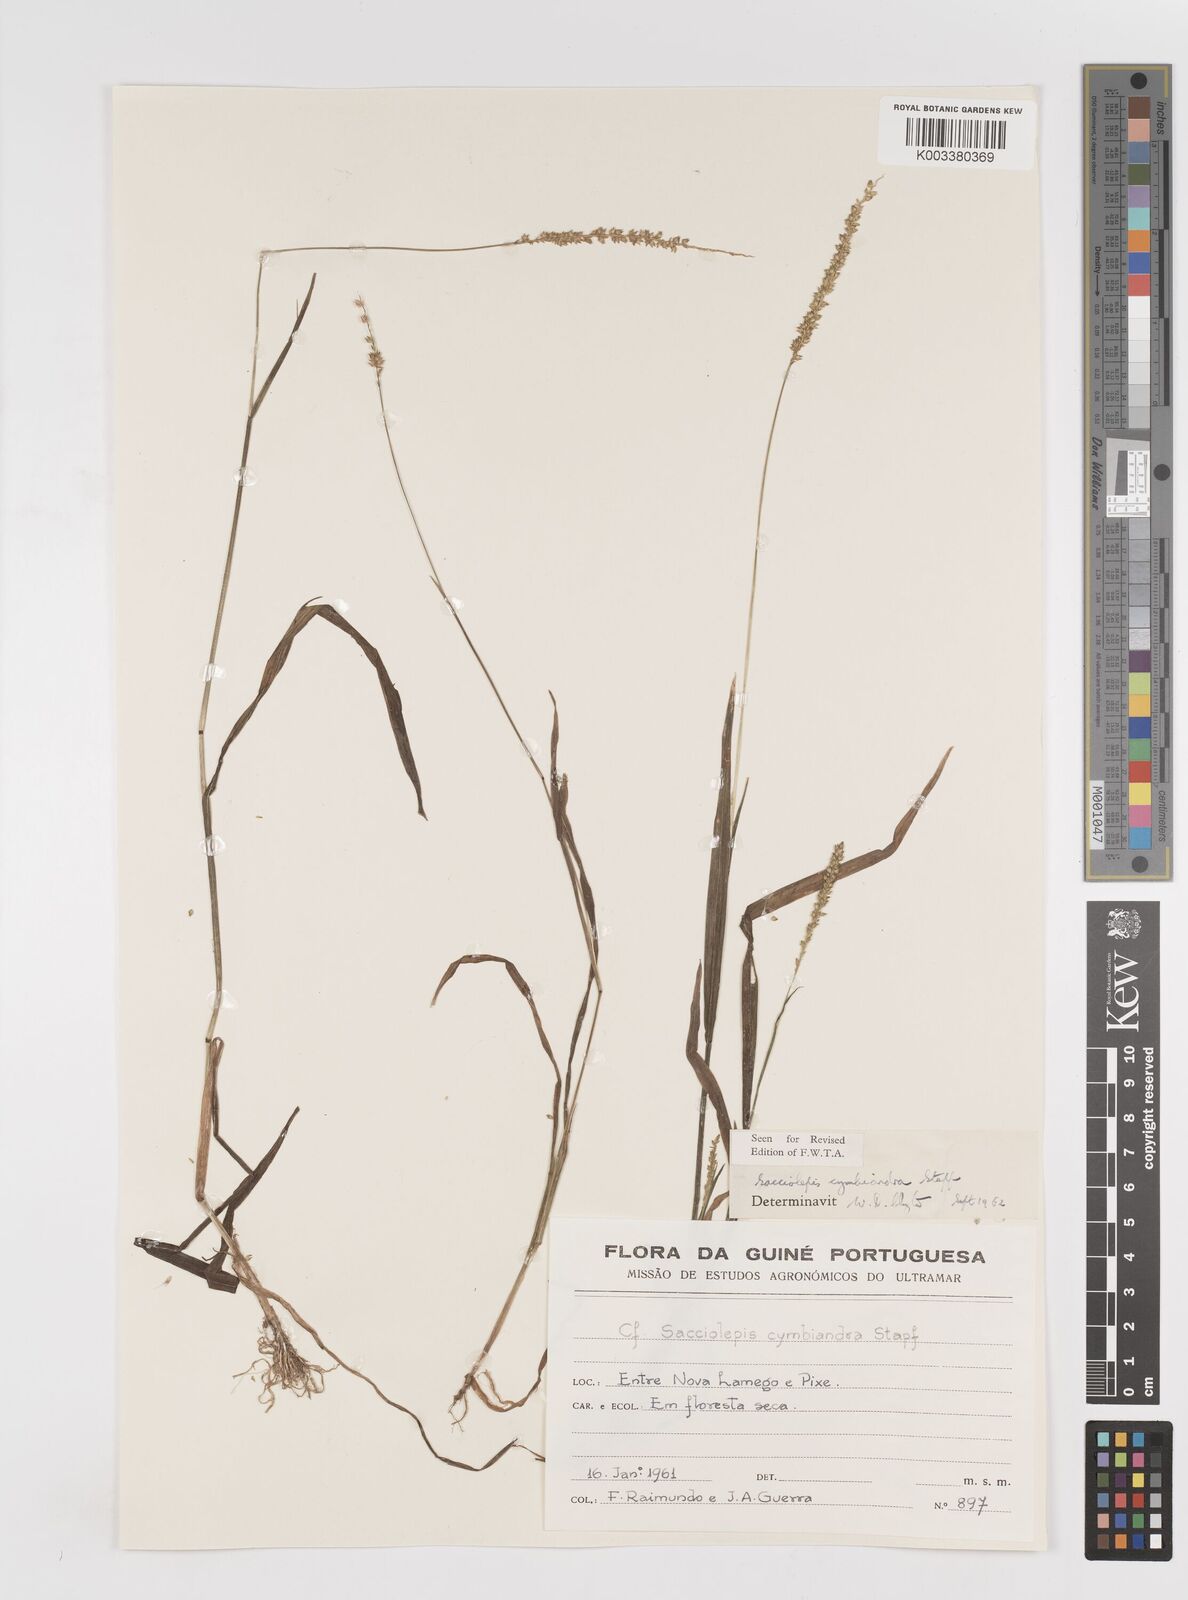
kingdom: Plantae
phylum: Tracheophyta
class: Liliopsida
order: Poales
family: Poaceae
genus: Sacciolepis
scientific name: Sacciolepis cymbiandra
